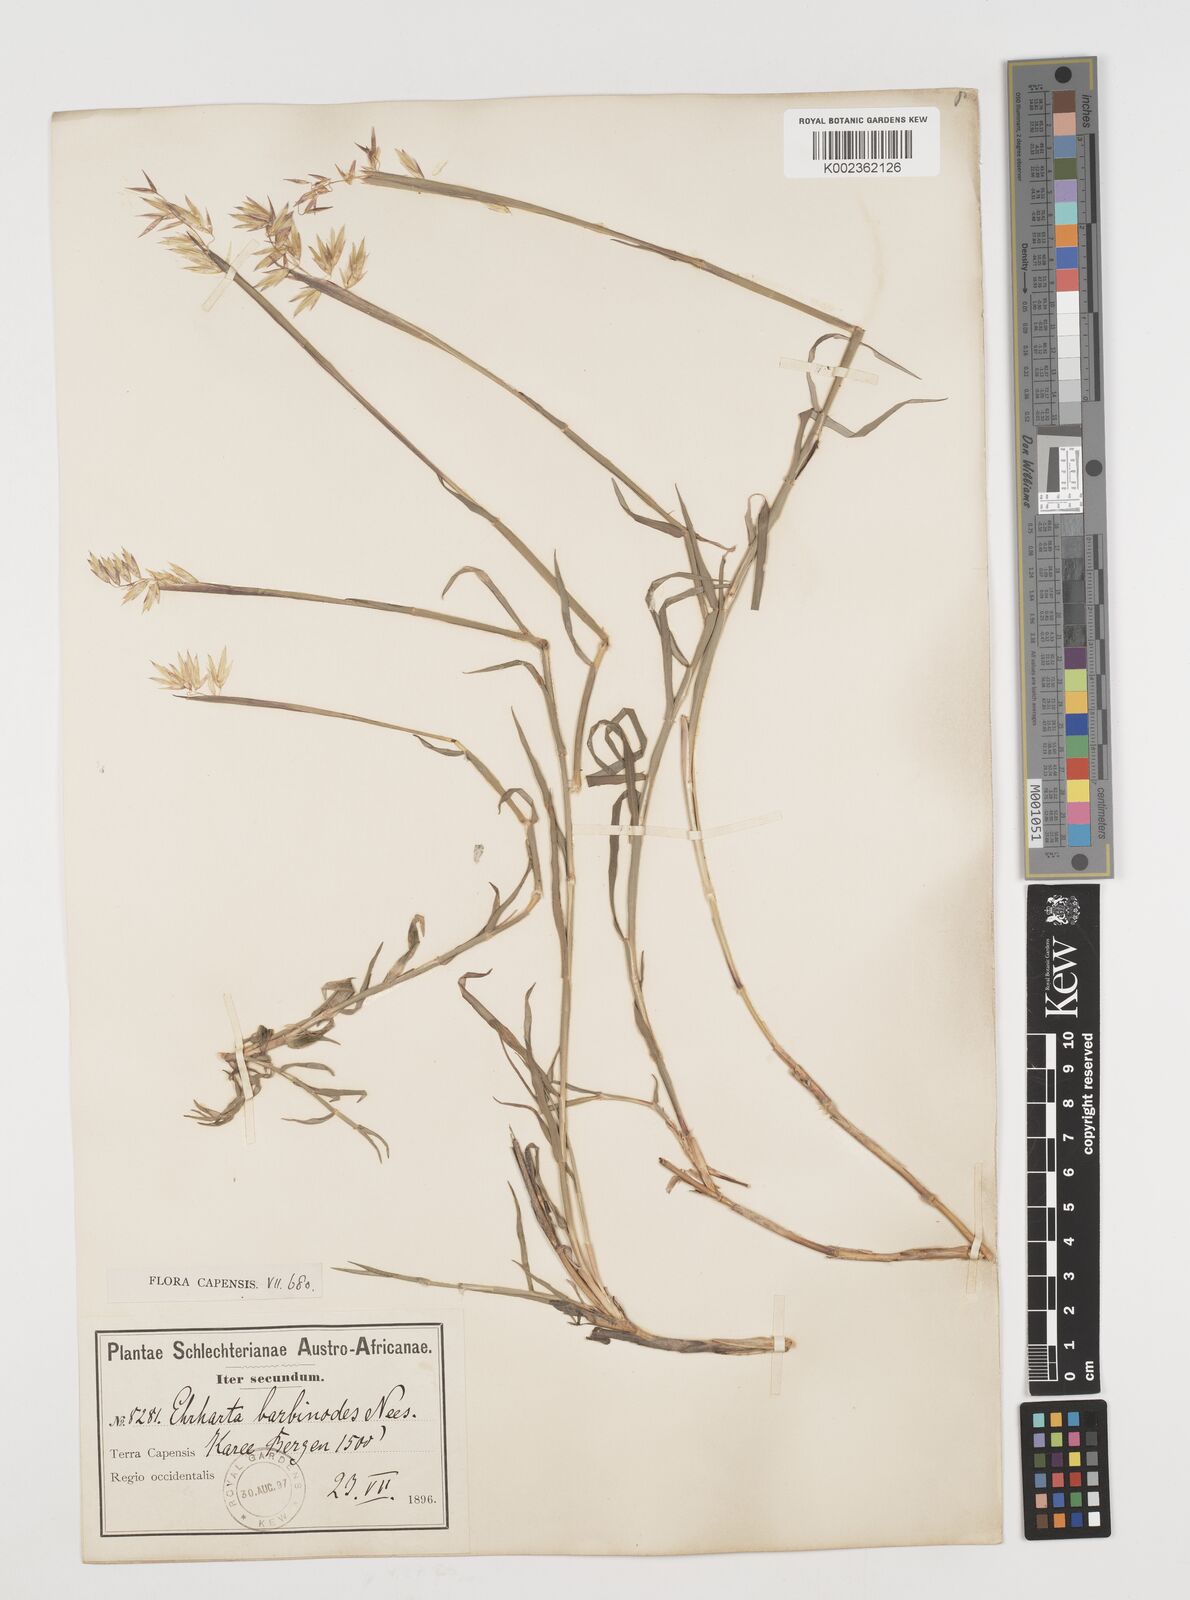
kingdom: Plantae
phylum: Tracheophyta
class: Liliopsida
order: Poales
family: Poaceae
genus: Ehrharta
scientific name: Ehrharta barbinodis
